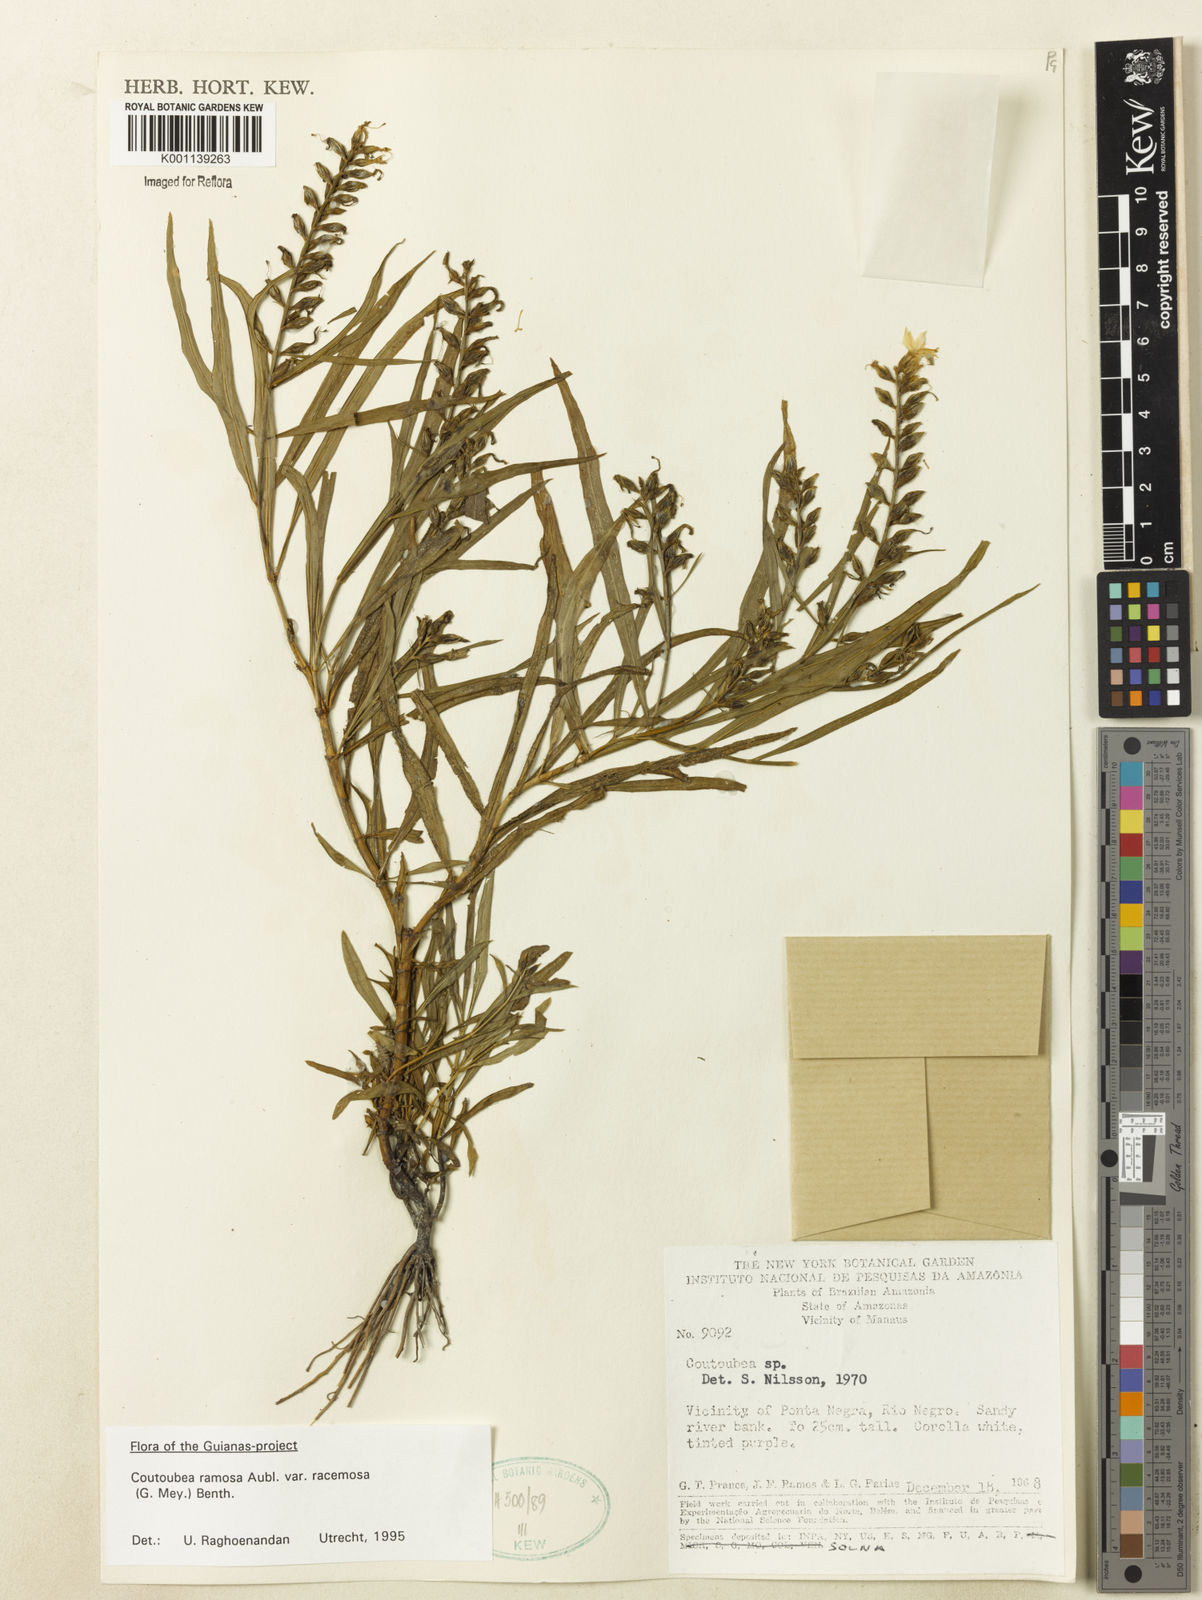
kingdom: Plantae
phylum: Tracheophyta
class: Magnoliopsida
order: Gentianales
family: Gentianaceae
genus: Coutoubea
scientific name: Coutoubea ramosa
